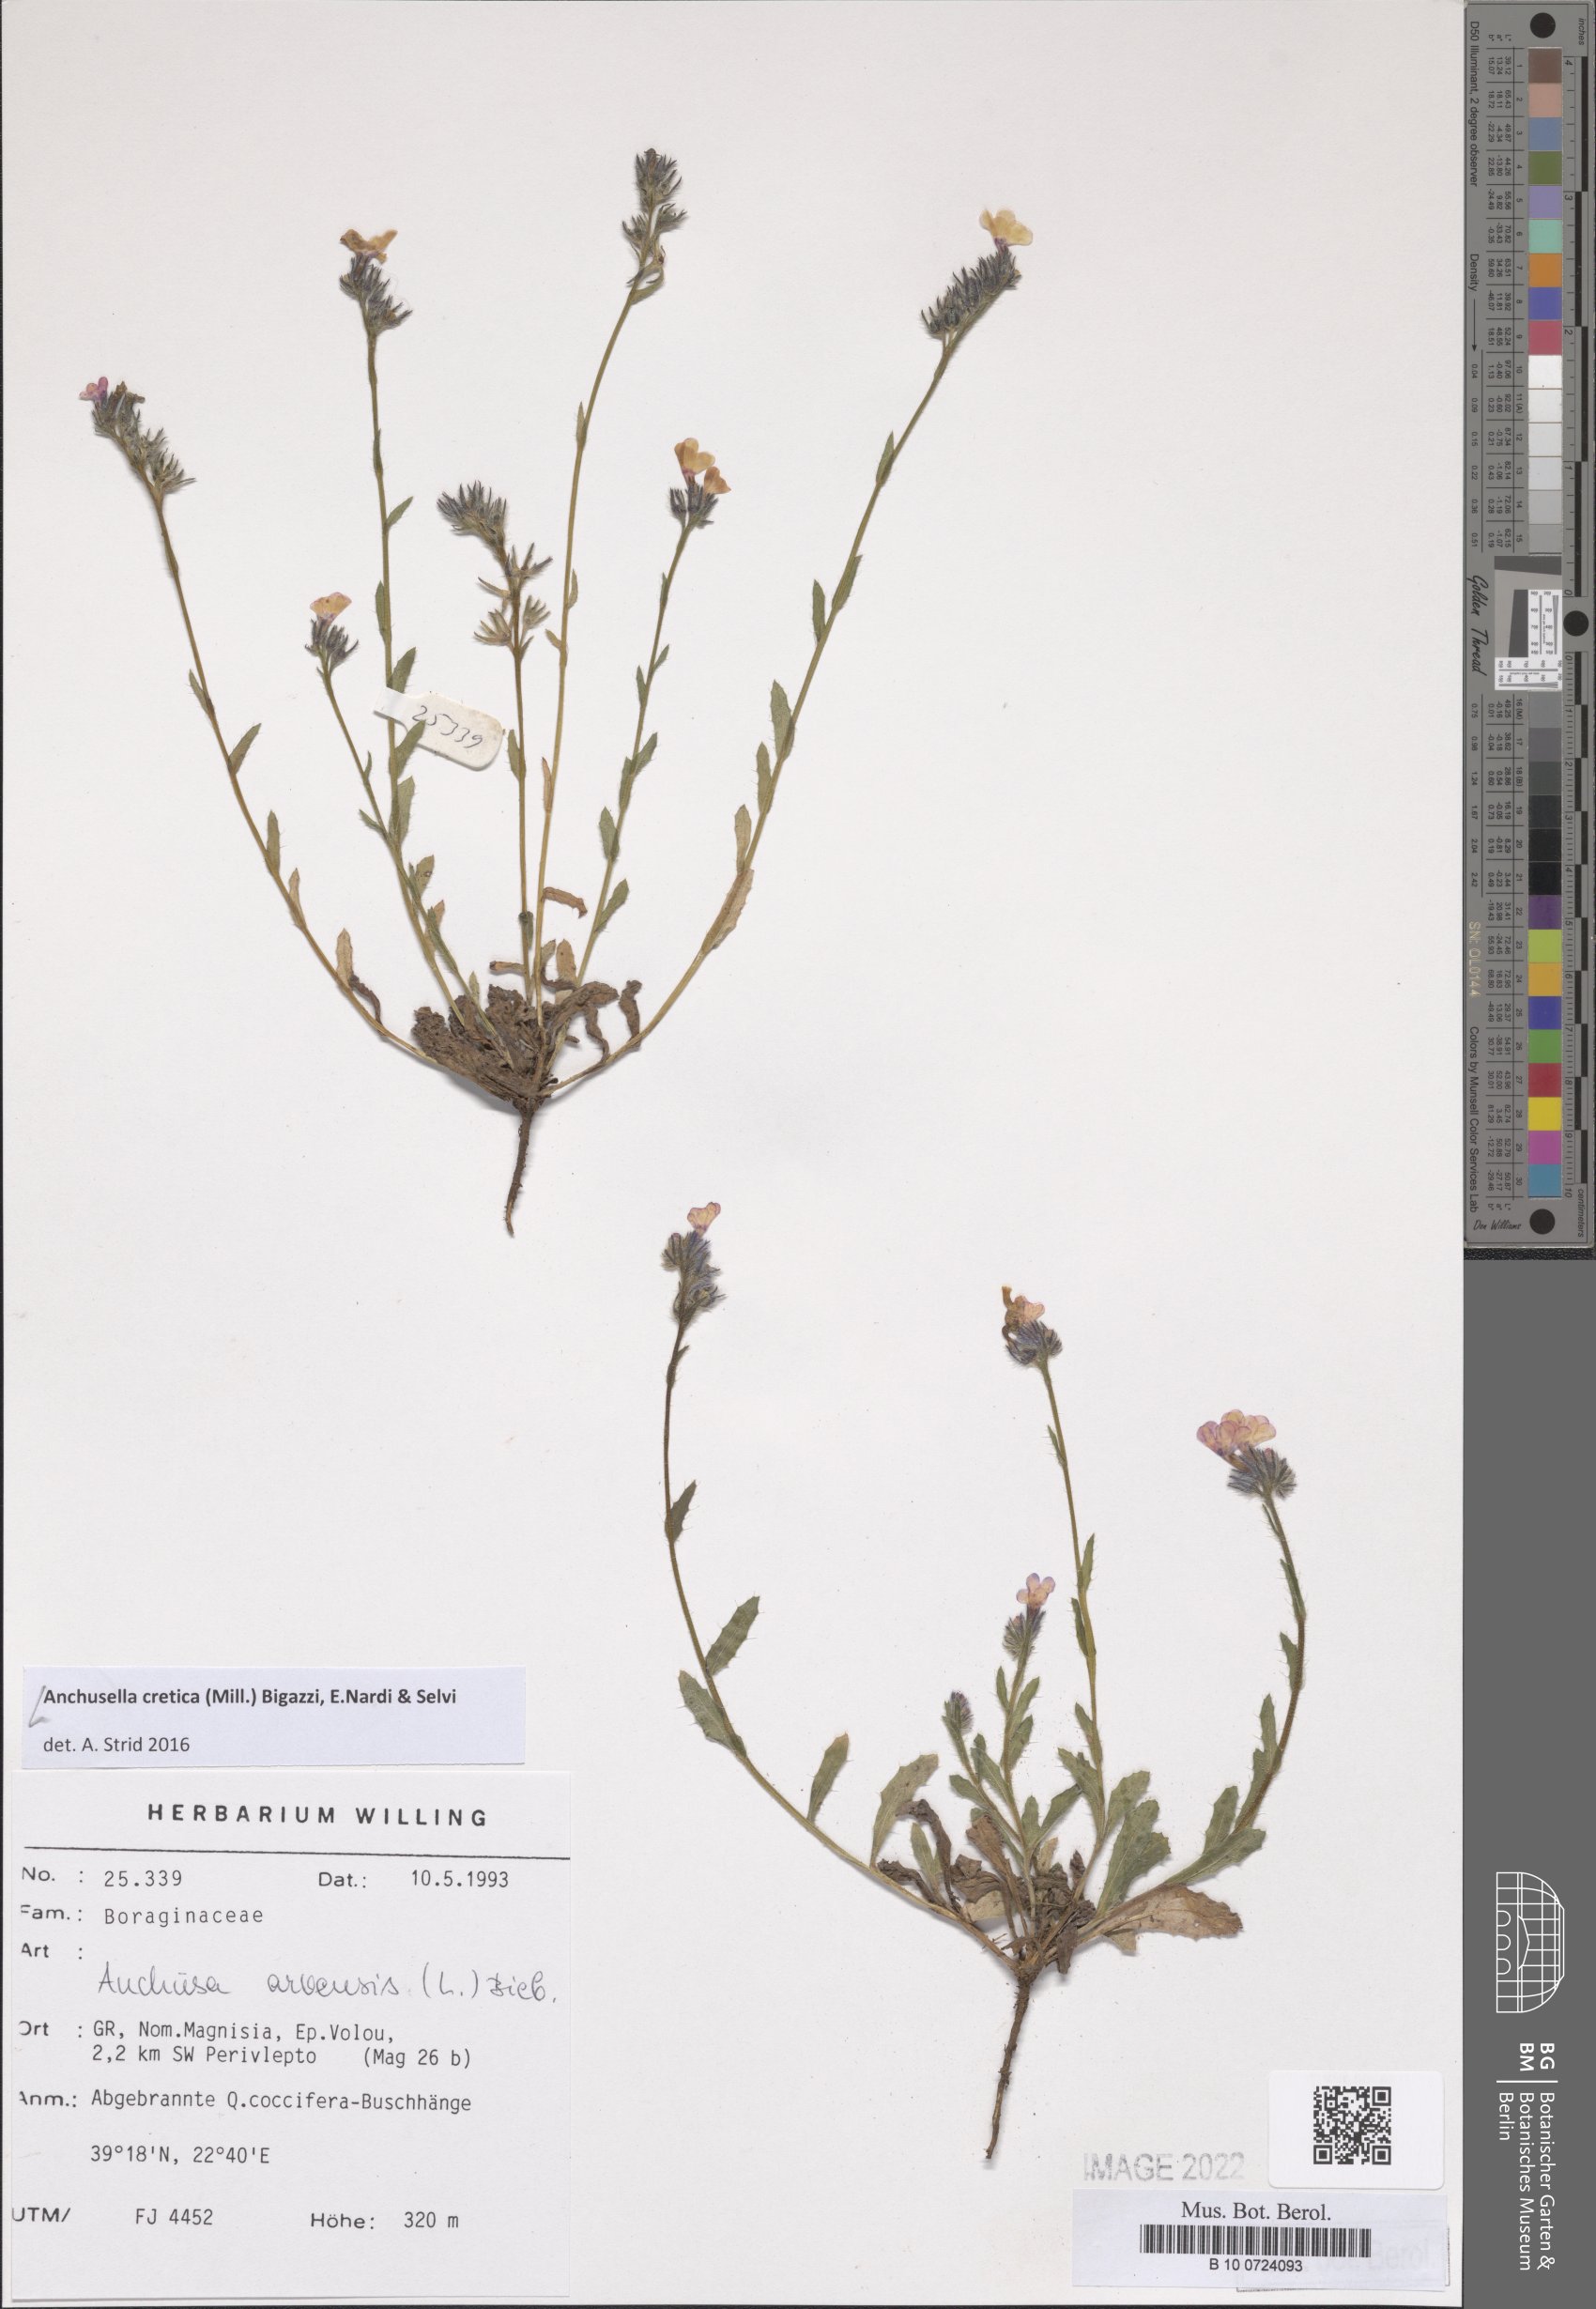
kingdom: Plantae
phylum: Tracheophyta
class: Magnoliopsida
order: Boraginales
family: Boraginaceae
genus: Anchusella
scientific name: Anchusella cretica
